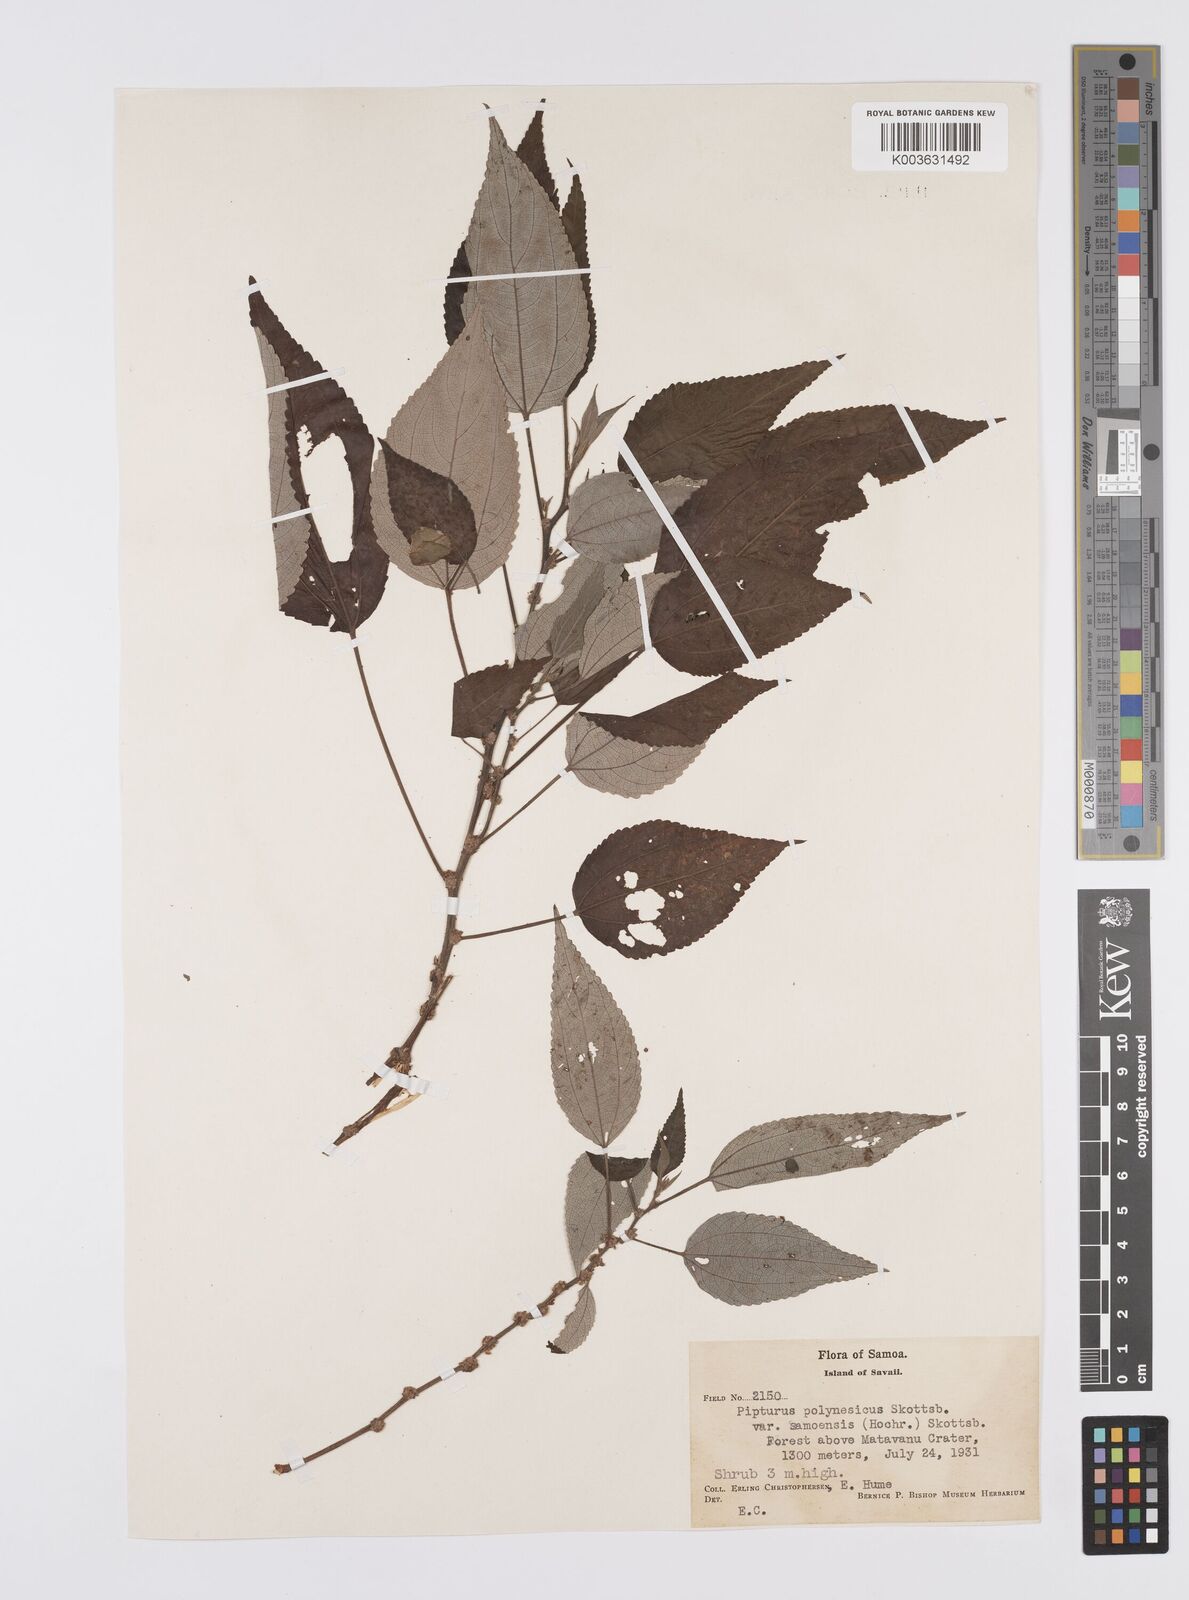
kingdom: Plantae
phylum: Tracheophyta
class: Magnoliopsida
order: Rosales
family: Urticaceae
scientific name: Urticaceae
